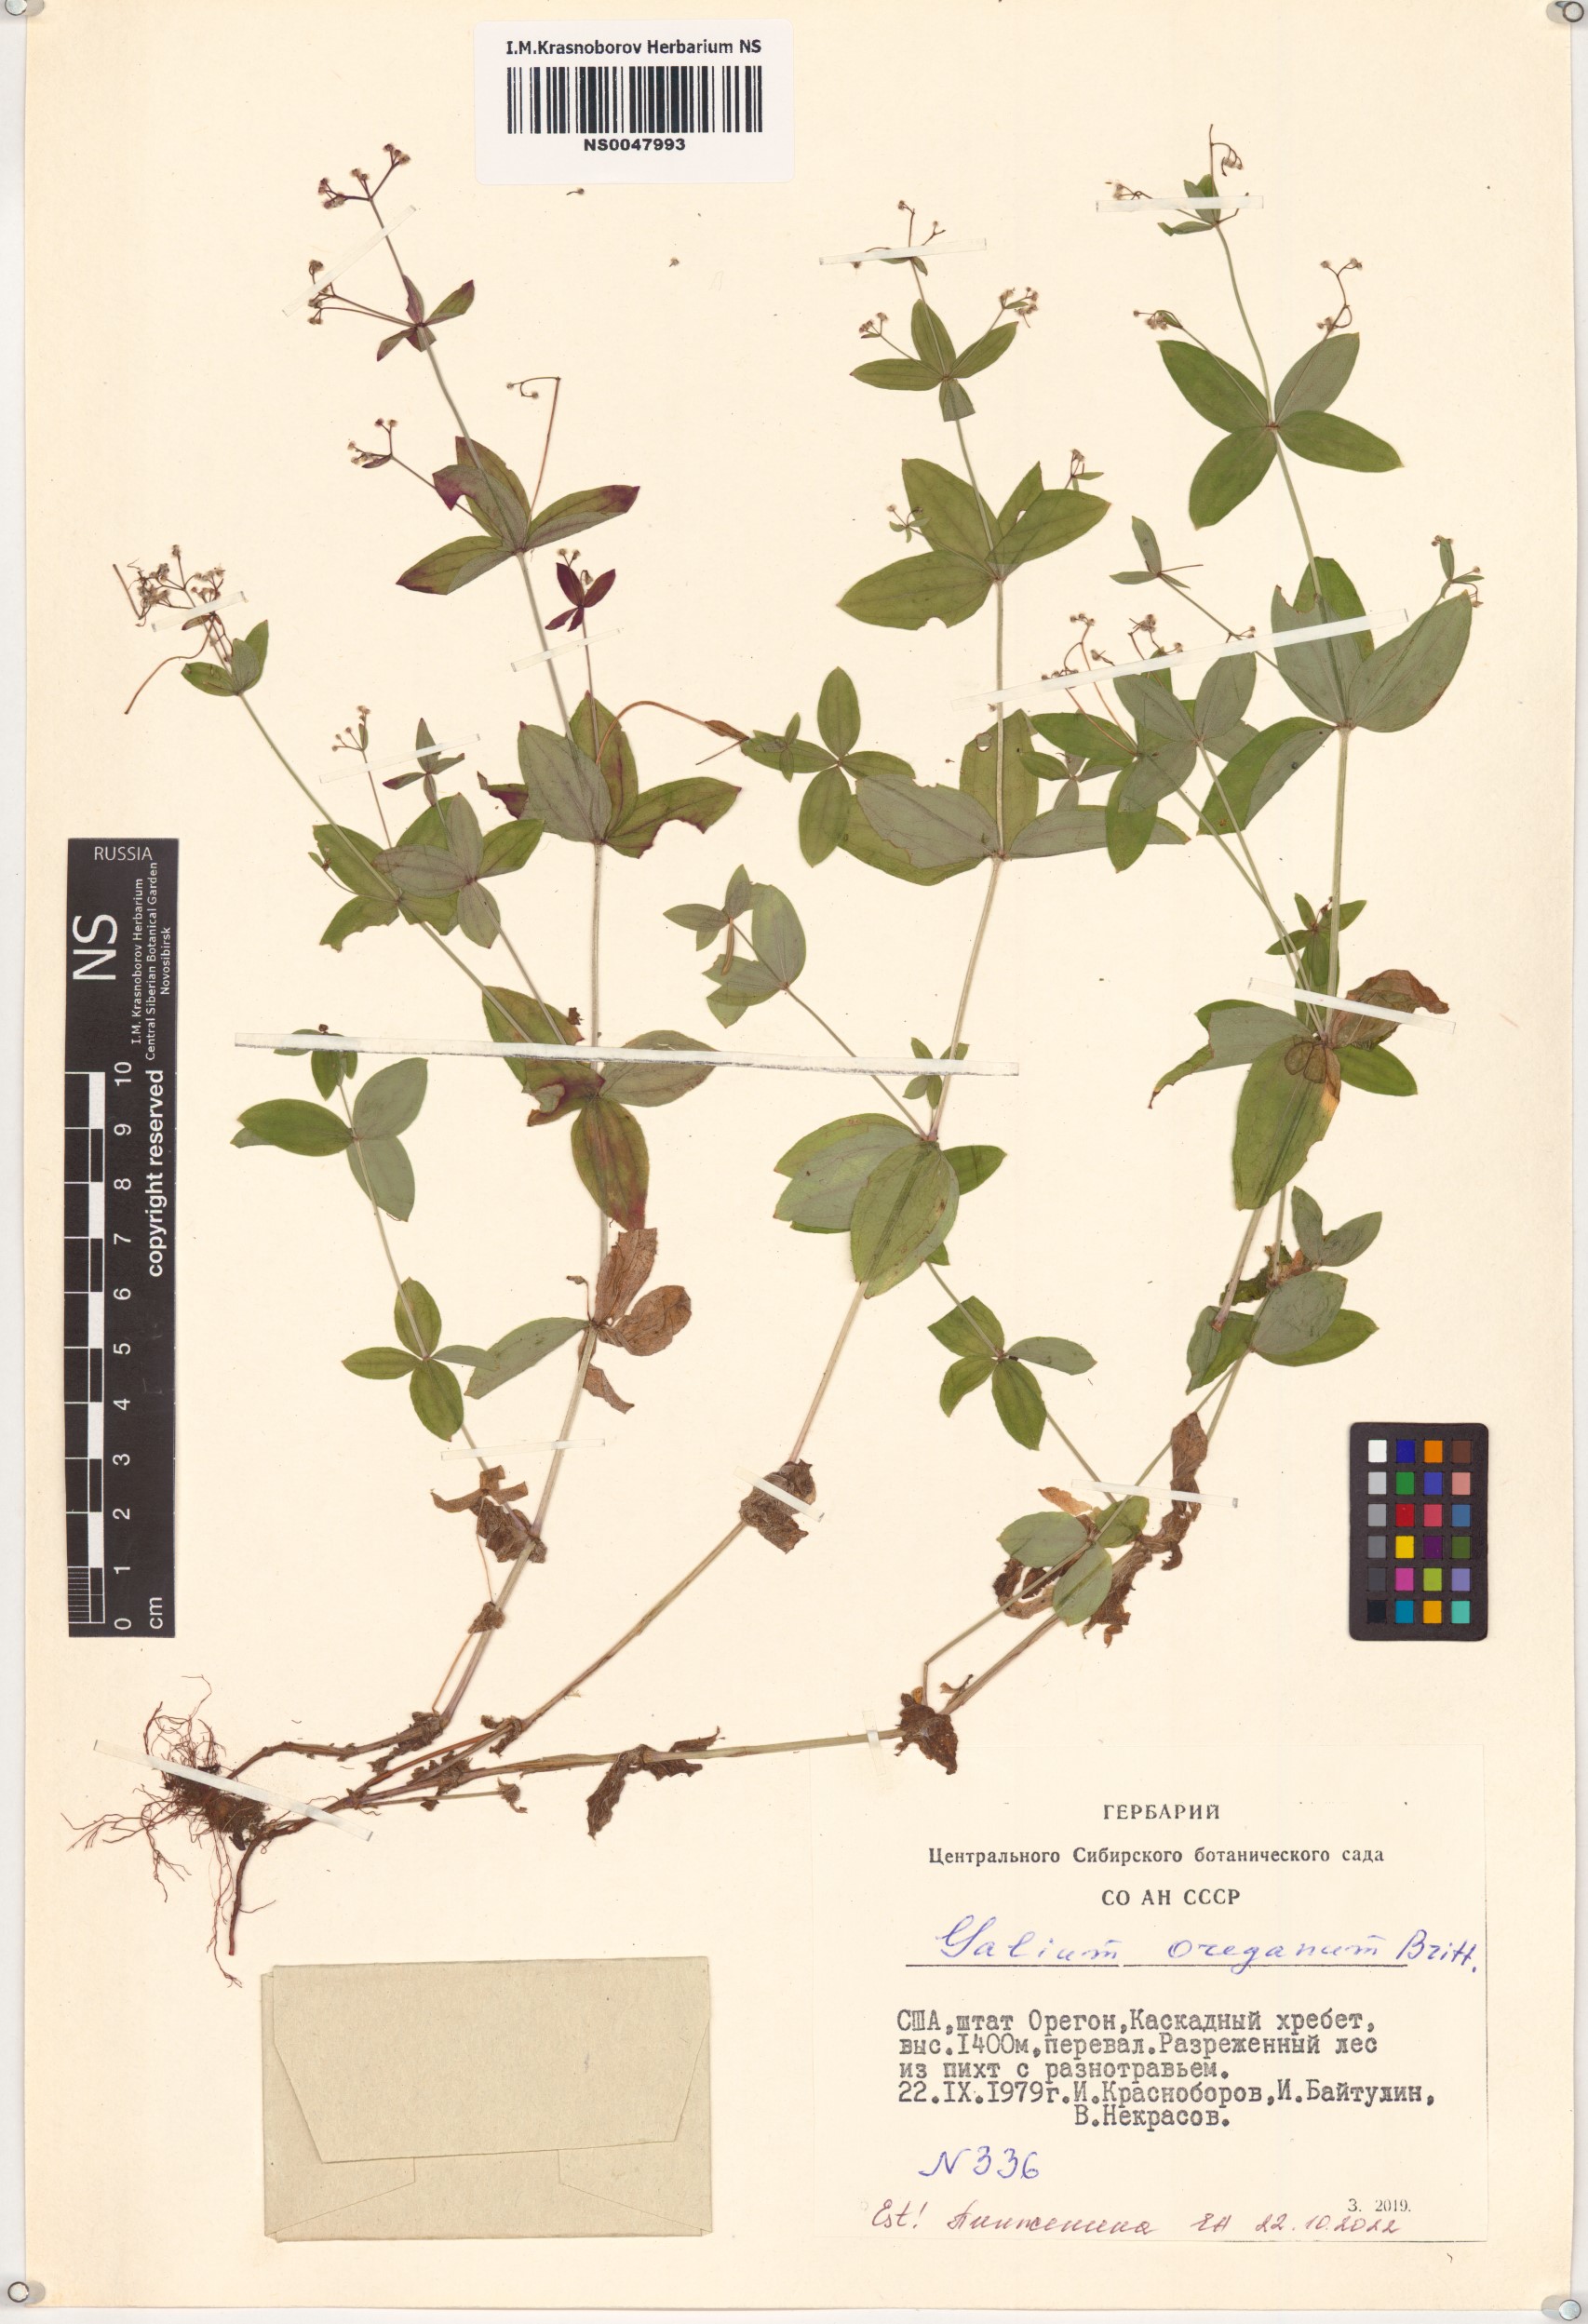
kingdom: Plantae
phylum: Tracheophyta
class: Magnoliopsida
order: Gentianales
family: Rubiaceae
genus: Galium
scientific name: Galium oreganum
